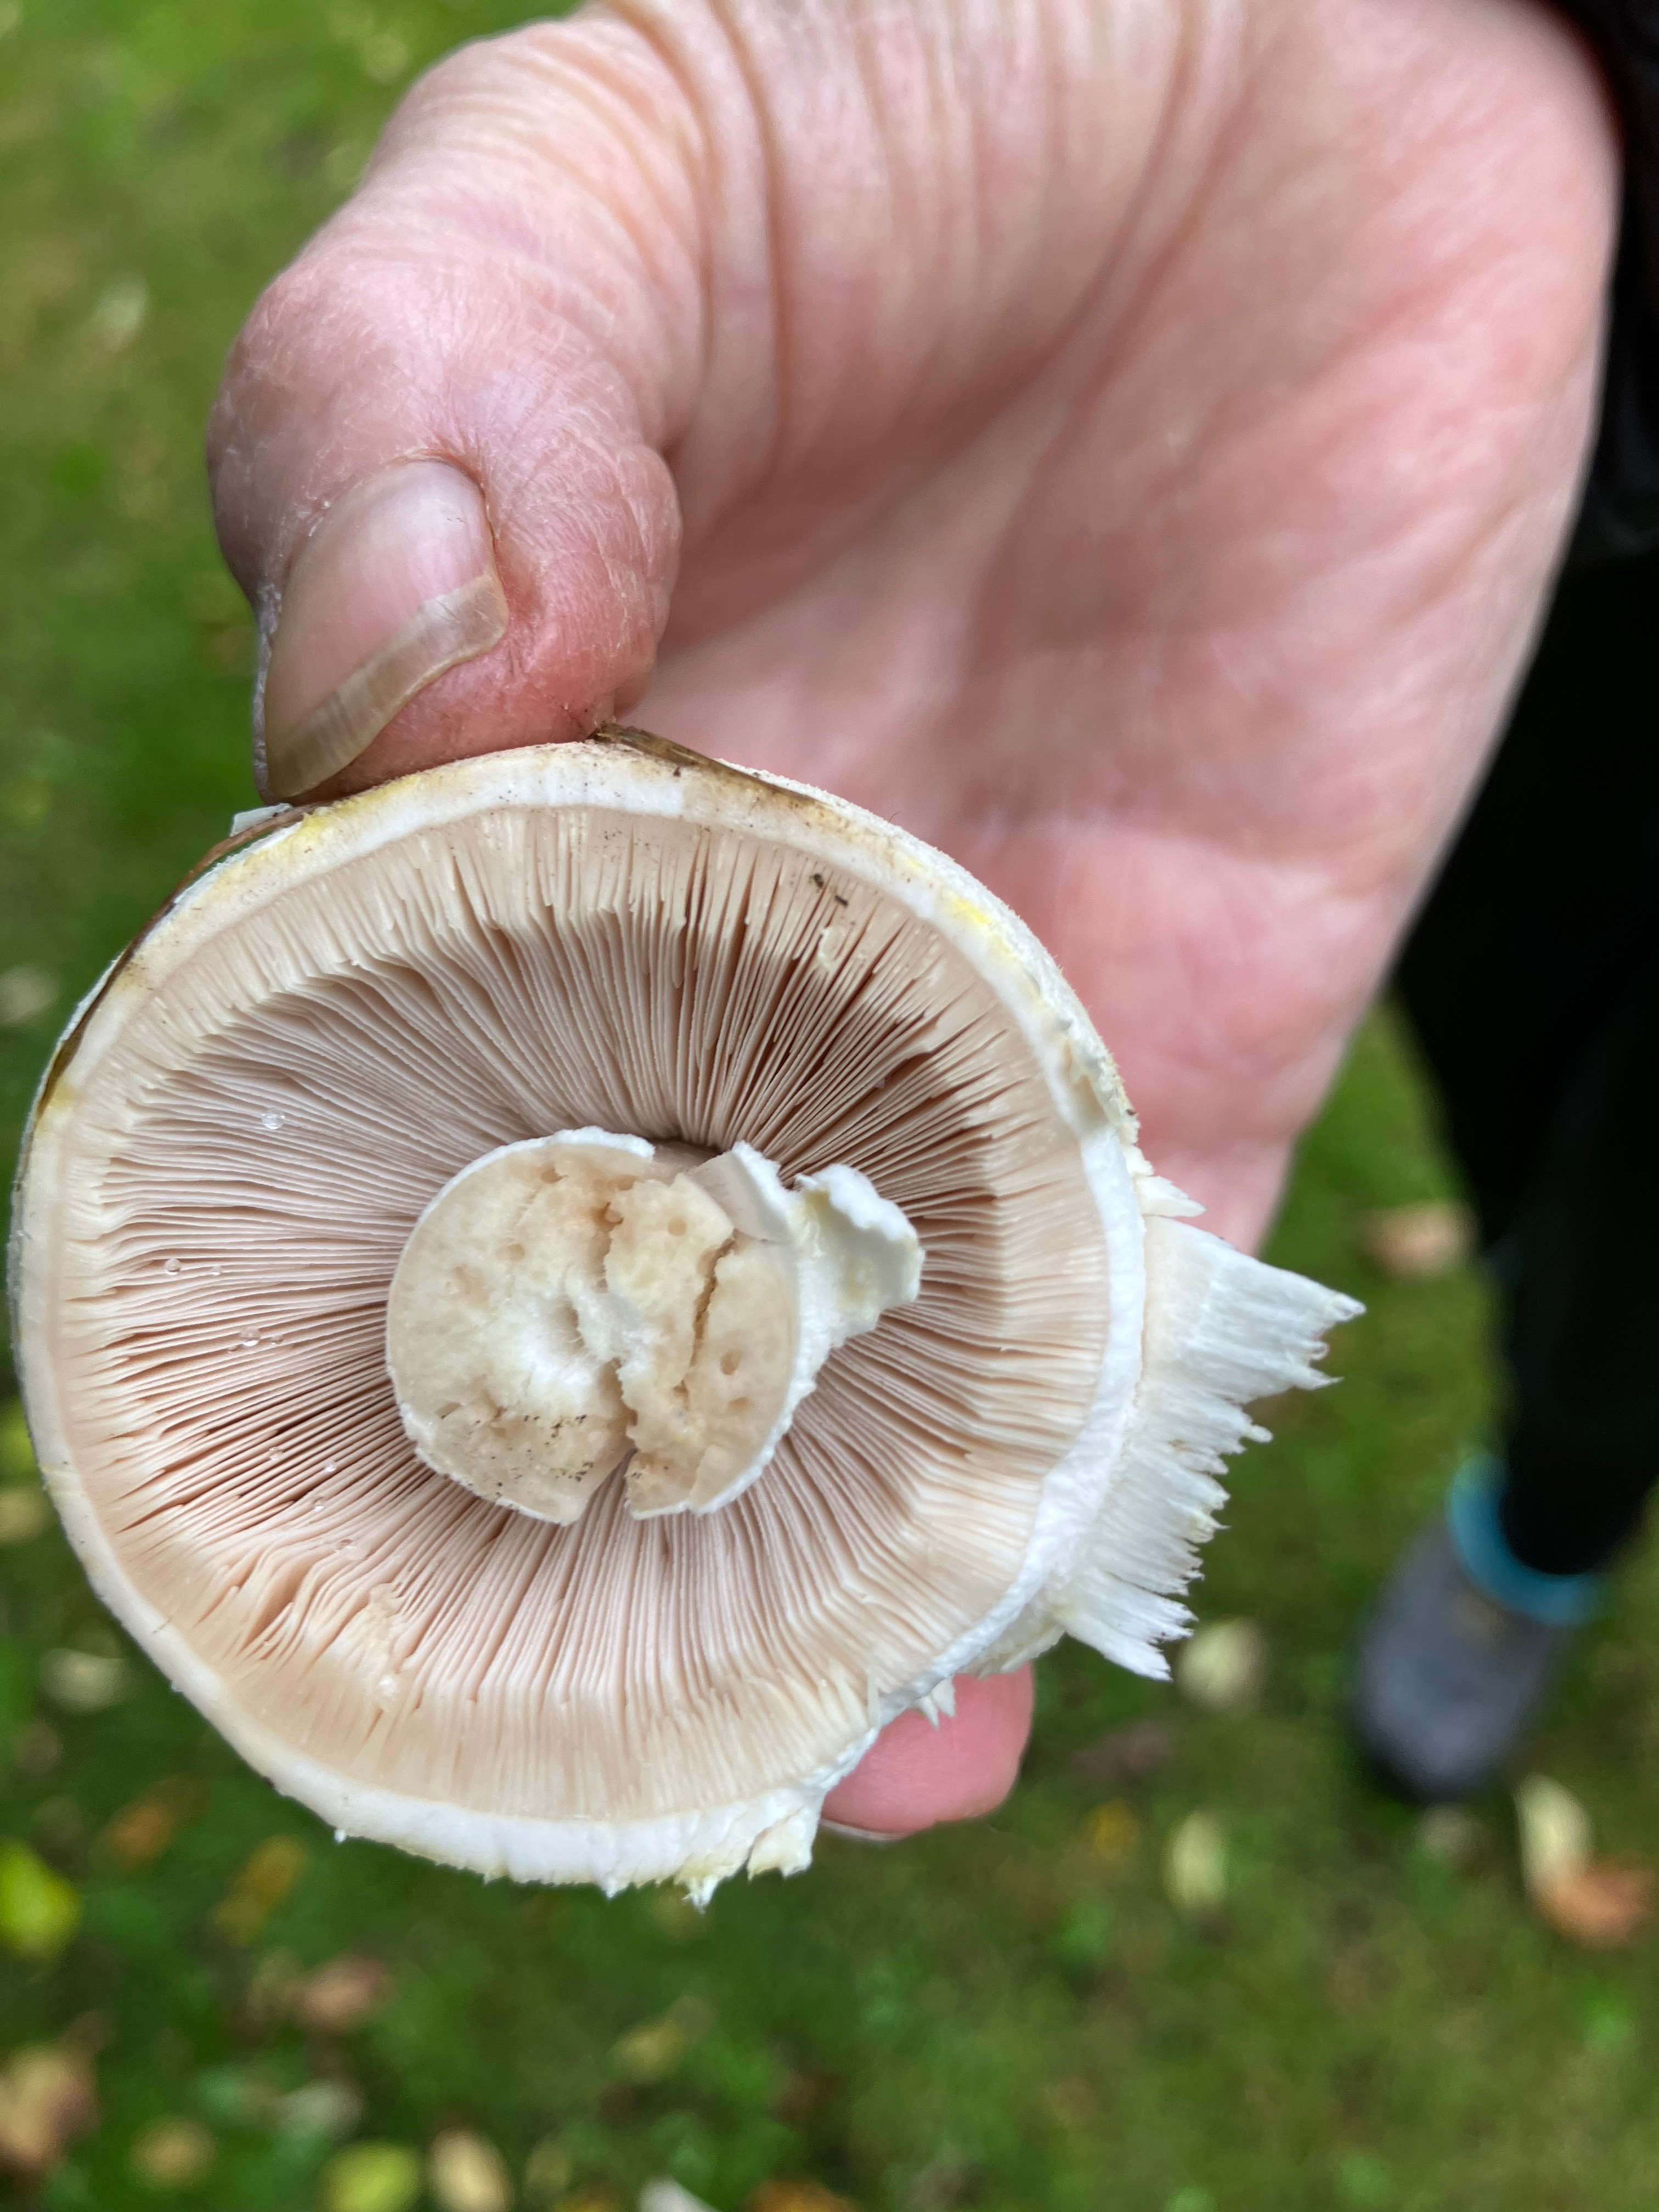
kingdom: Fungi
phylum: Basidiomycota
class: Agaricomycetes
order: Agaricales
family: Agaricaceae
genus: Agaricus
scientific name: Agaricus
